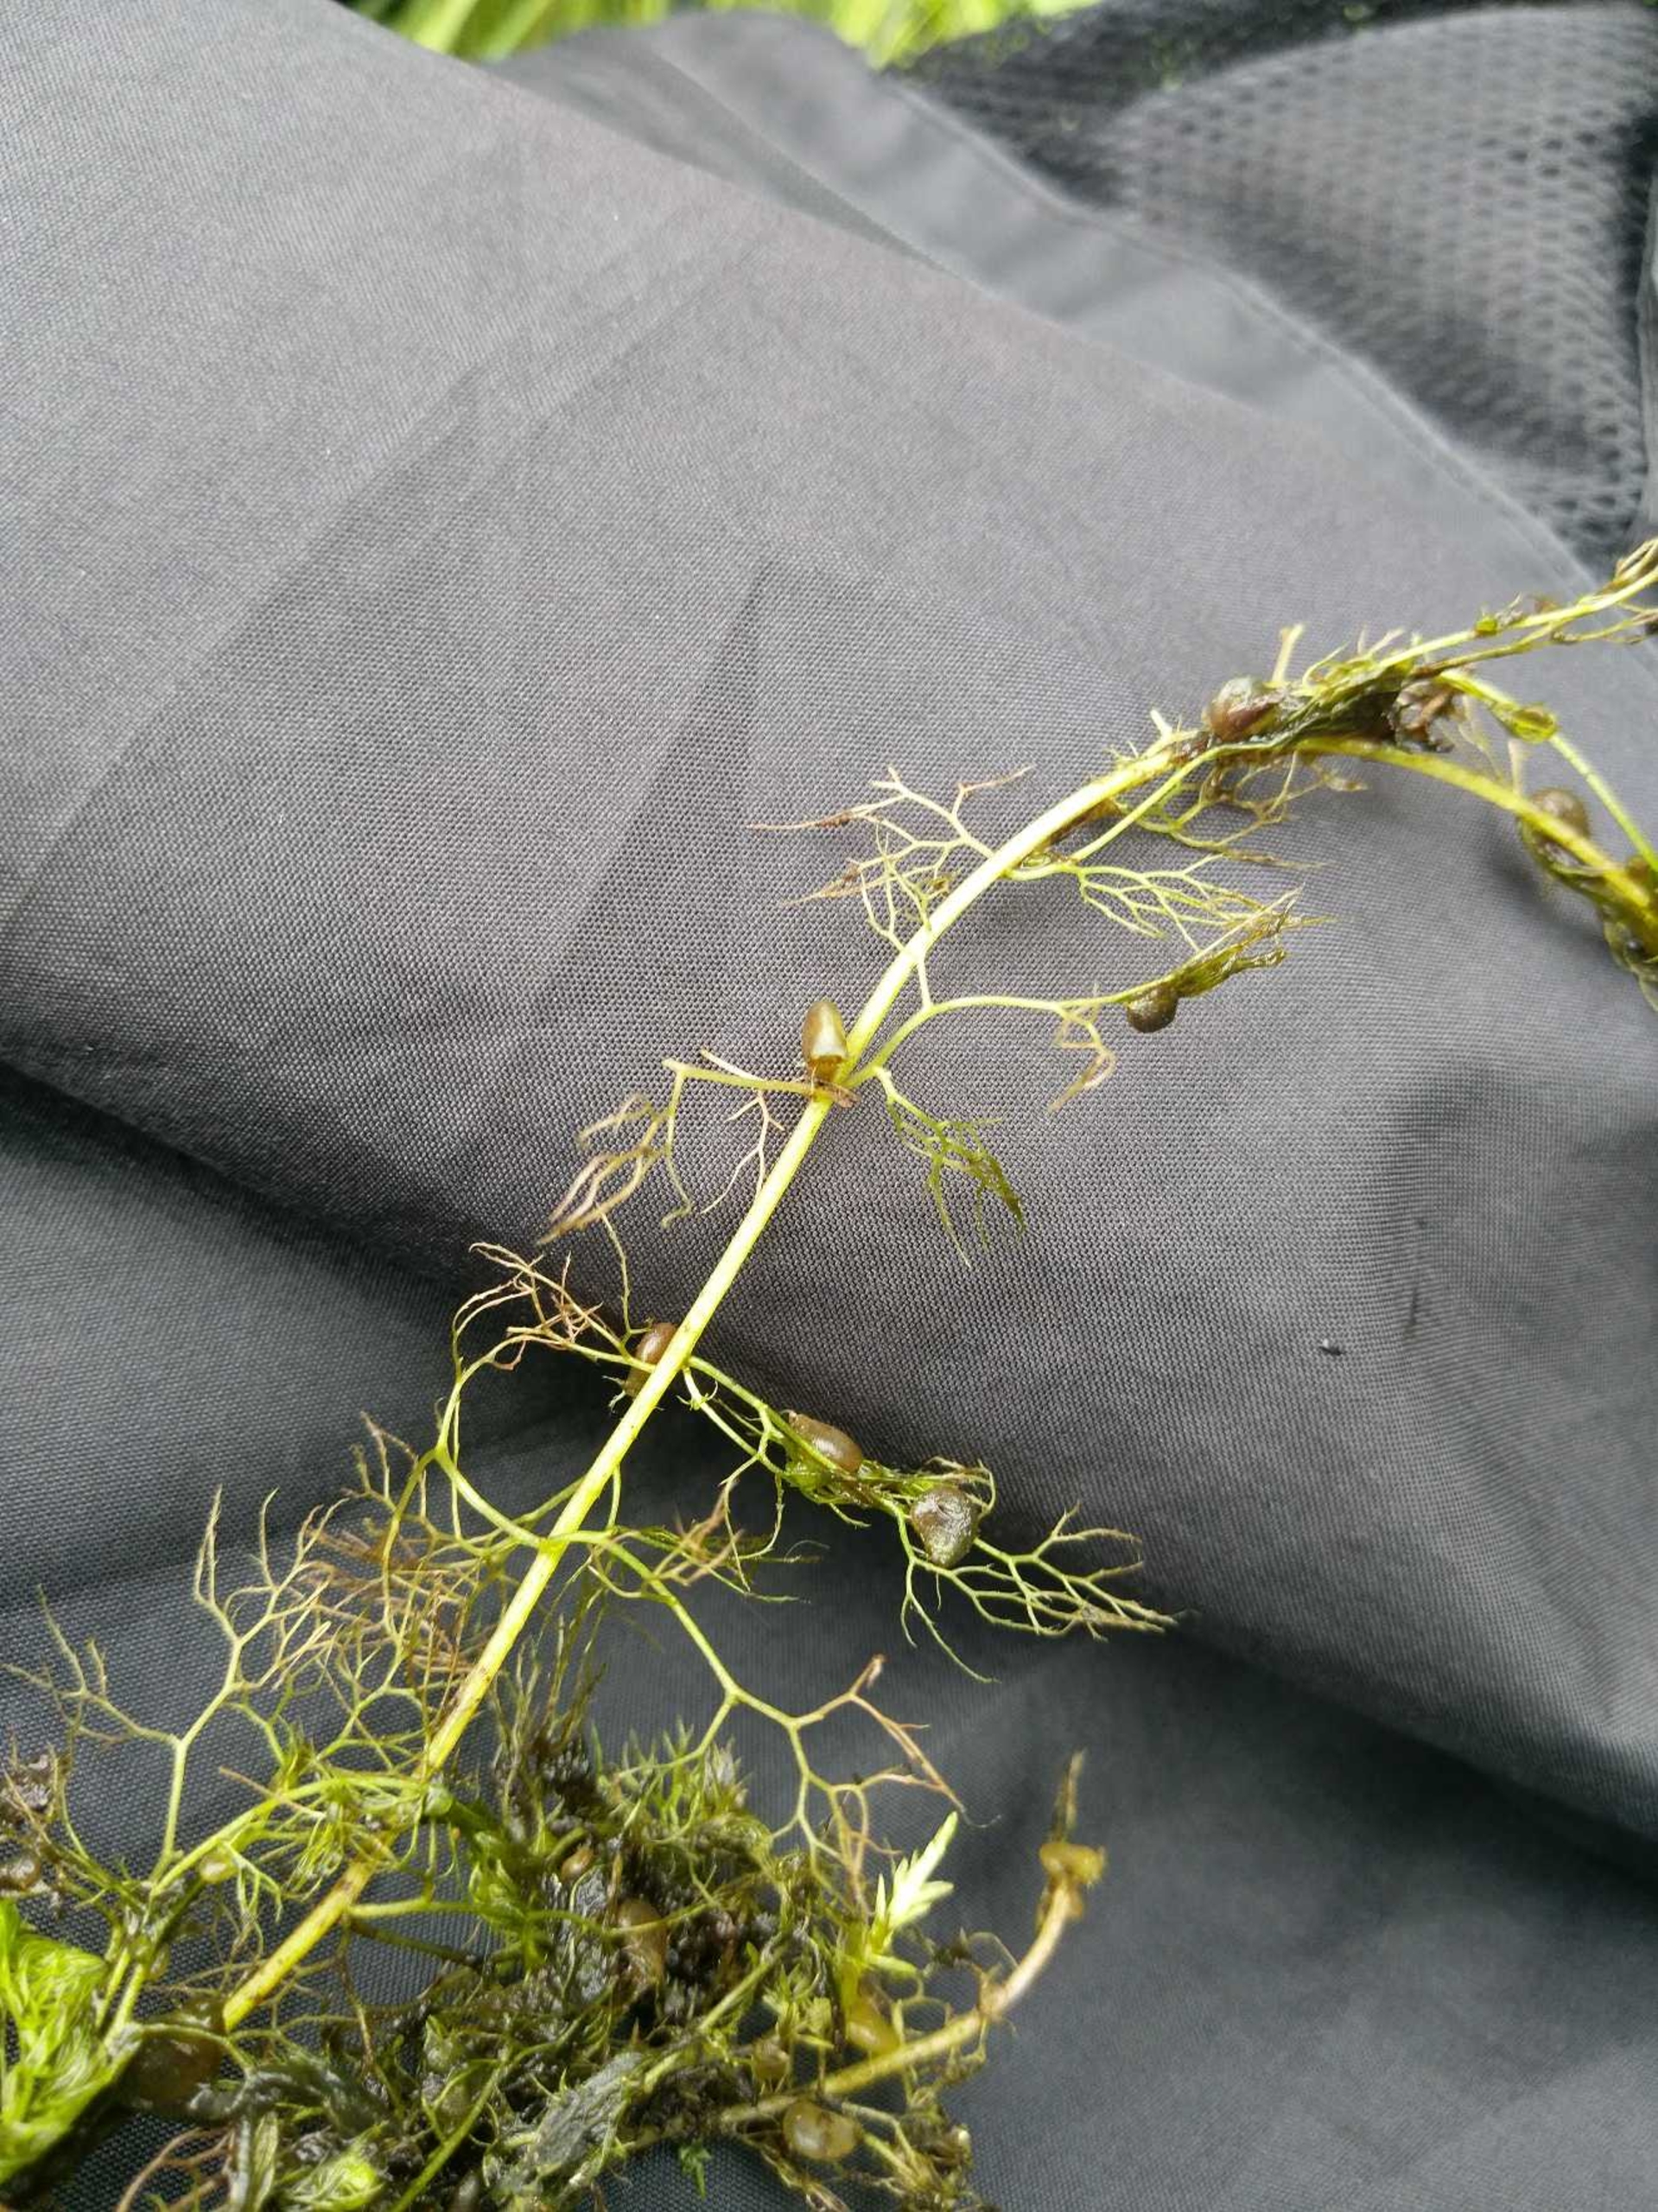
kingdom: Plantae
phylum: Tracheophyta
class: Magnoliopsida
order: Lamiales
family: Lentibulariaceae
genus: Utricularia
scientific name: Utricularia vulgaris
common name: Almindelig blærerod
